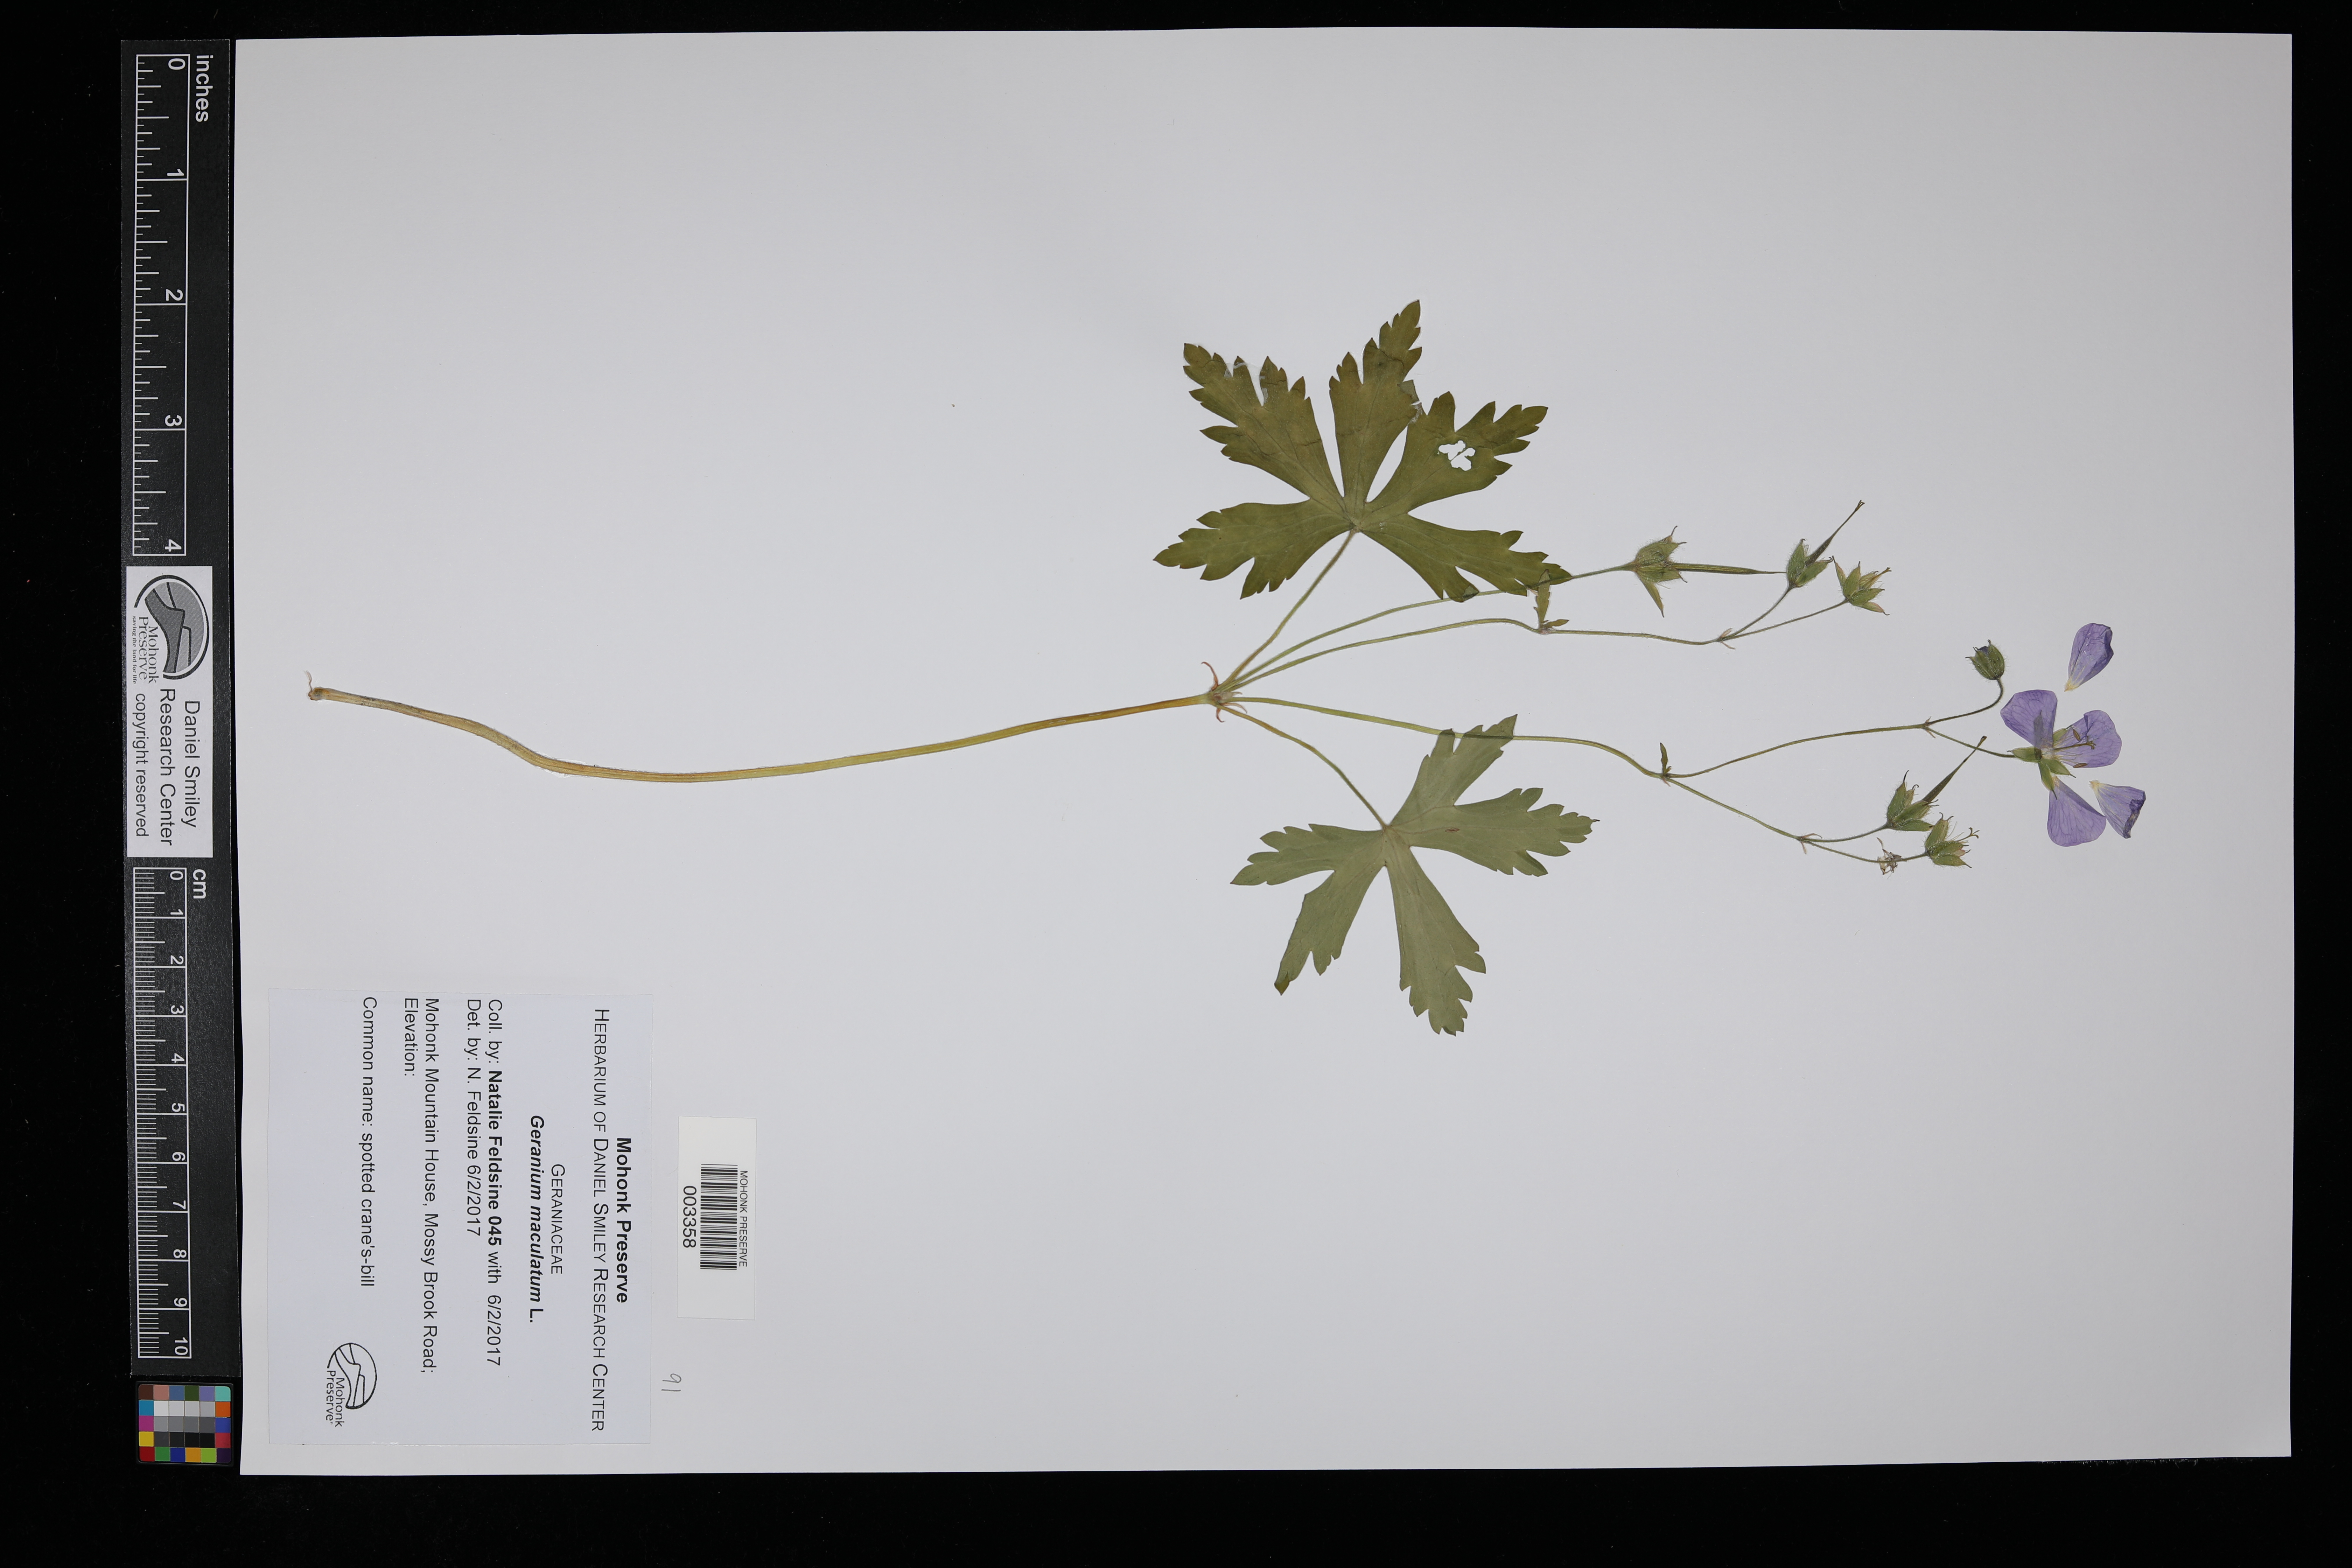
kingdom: Plantae
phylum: Tracheophyta
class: Magnoliopsida
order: Geraniales
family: Geraniaceae
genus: Geranium
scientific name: Geranium maculatum
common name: Spotted geranium
